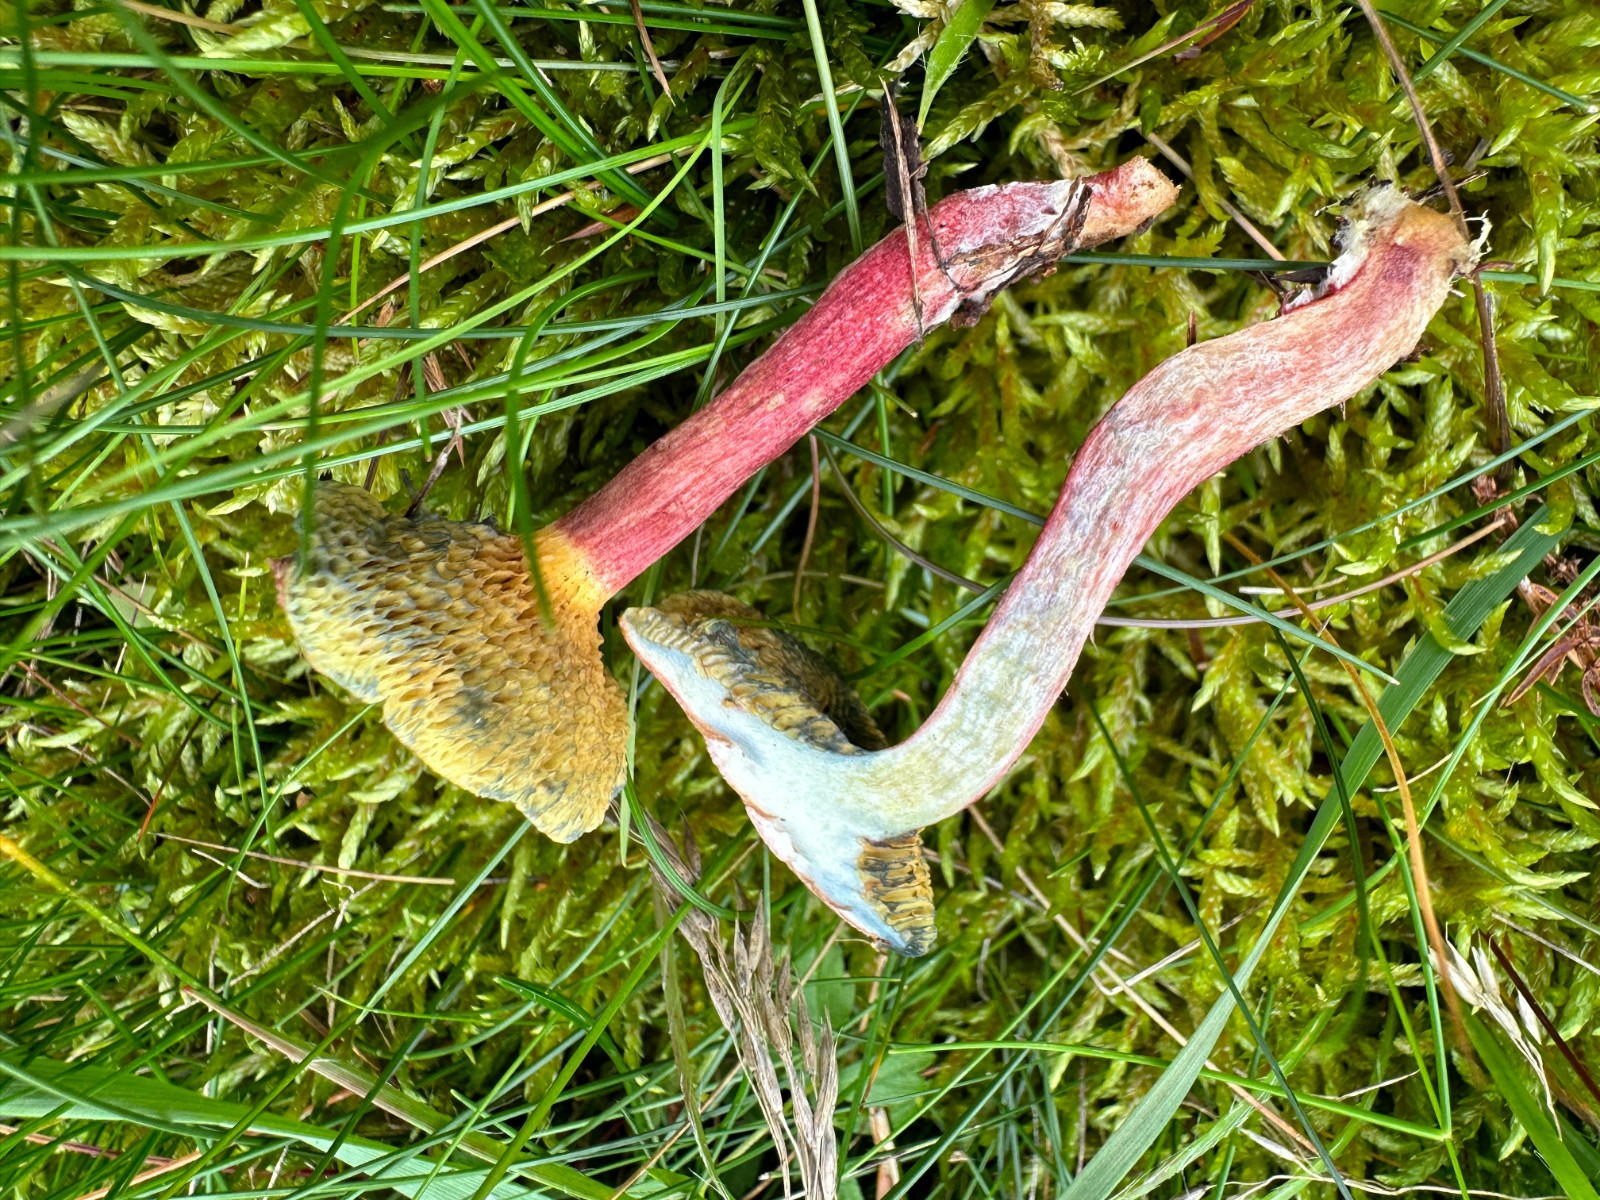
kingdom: Fungi
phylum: Basidiomycota
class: Agaricomycetes
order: Boletales
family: Boletaceae
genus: Xerocomellus
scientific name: Xerocomellus chrysenteron
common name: rødsprukken rørhat
